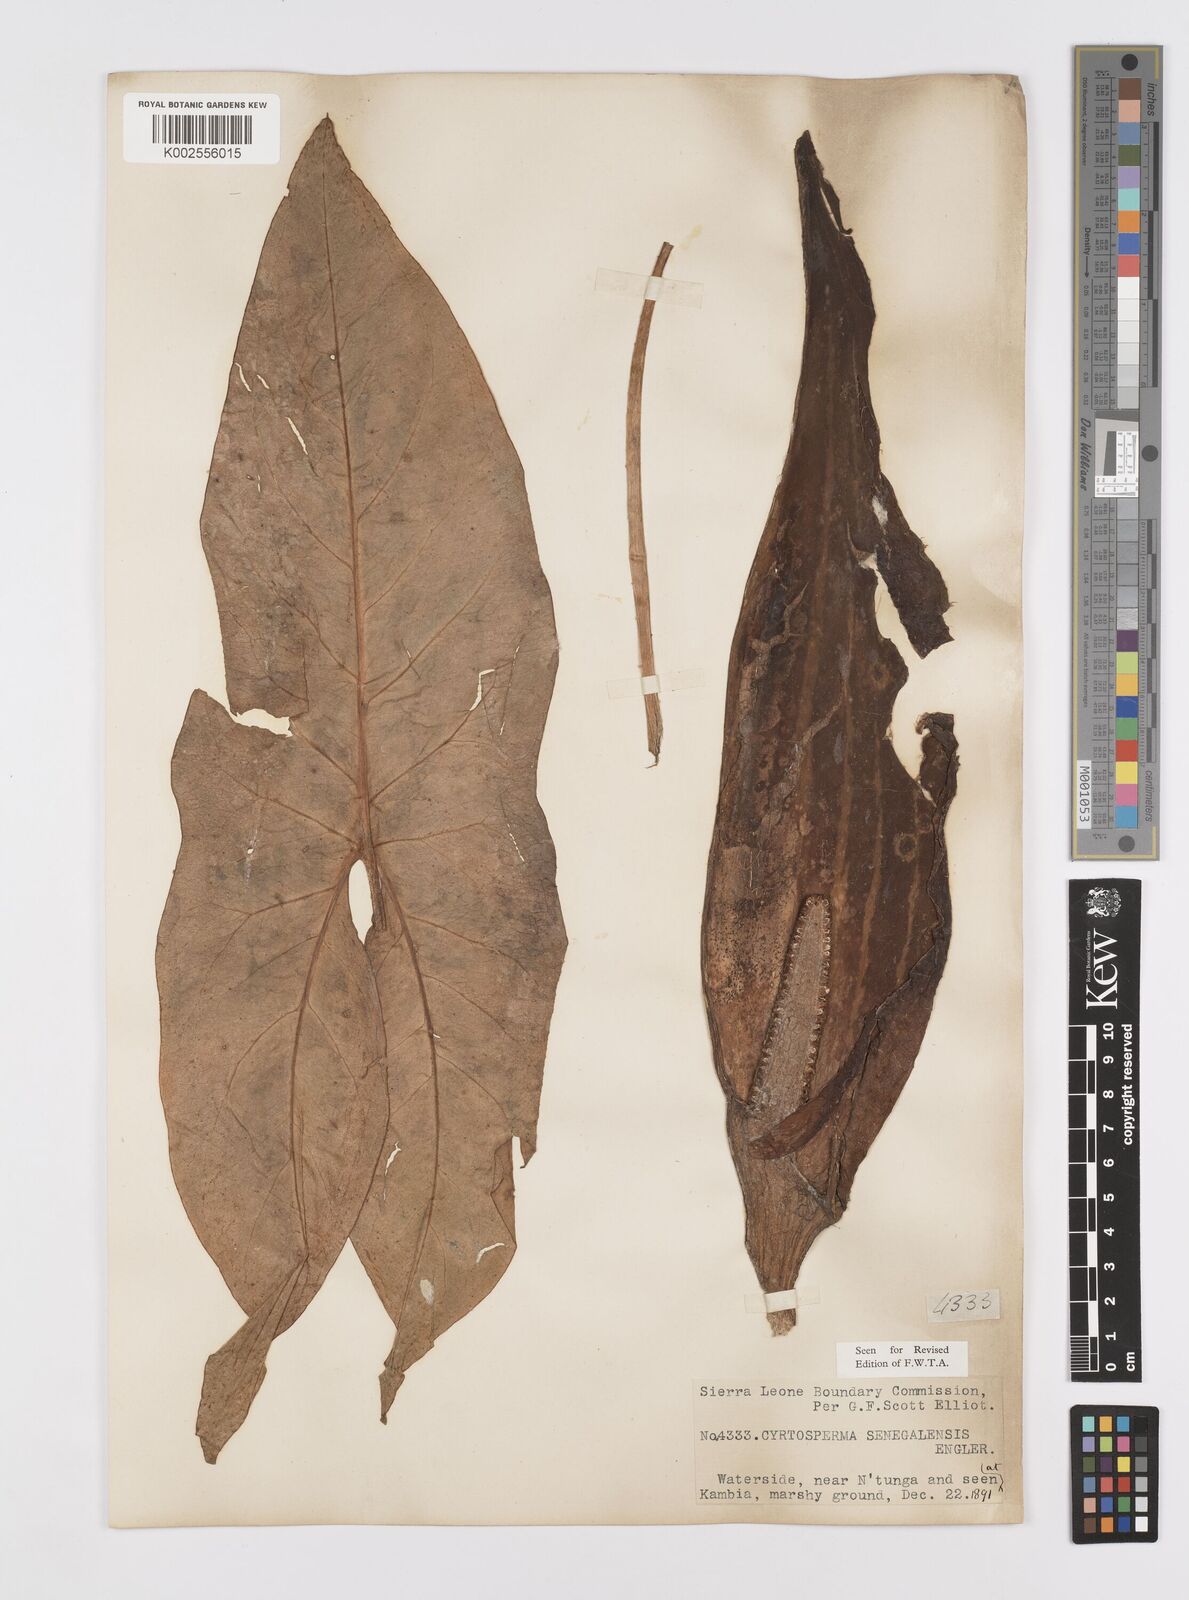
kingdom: Plantae
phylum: Tracheophyta
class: Liliopsida
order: Alismatales
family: Araceae
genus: Lasimorpha
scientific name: Lasimorpha senegalensis
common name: Swamp arum
